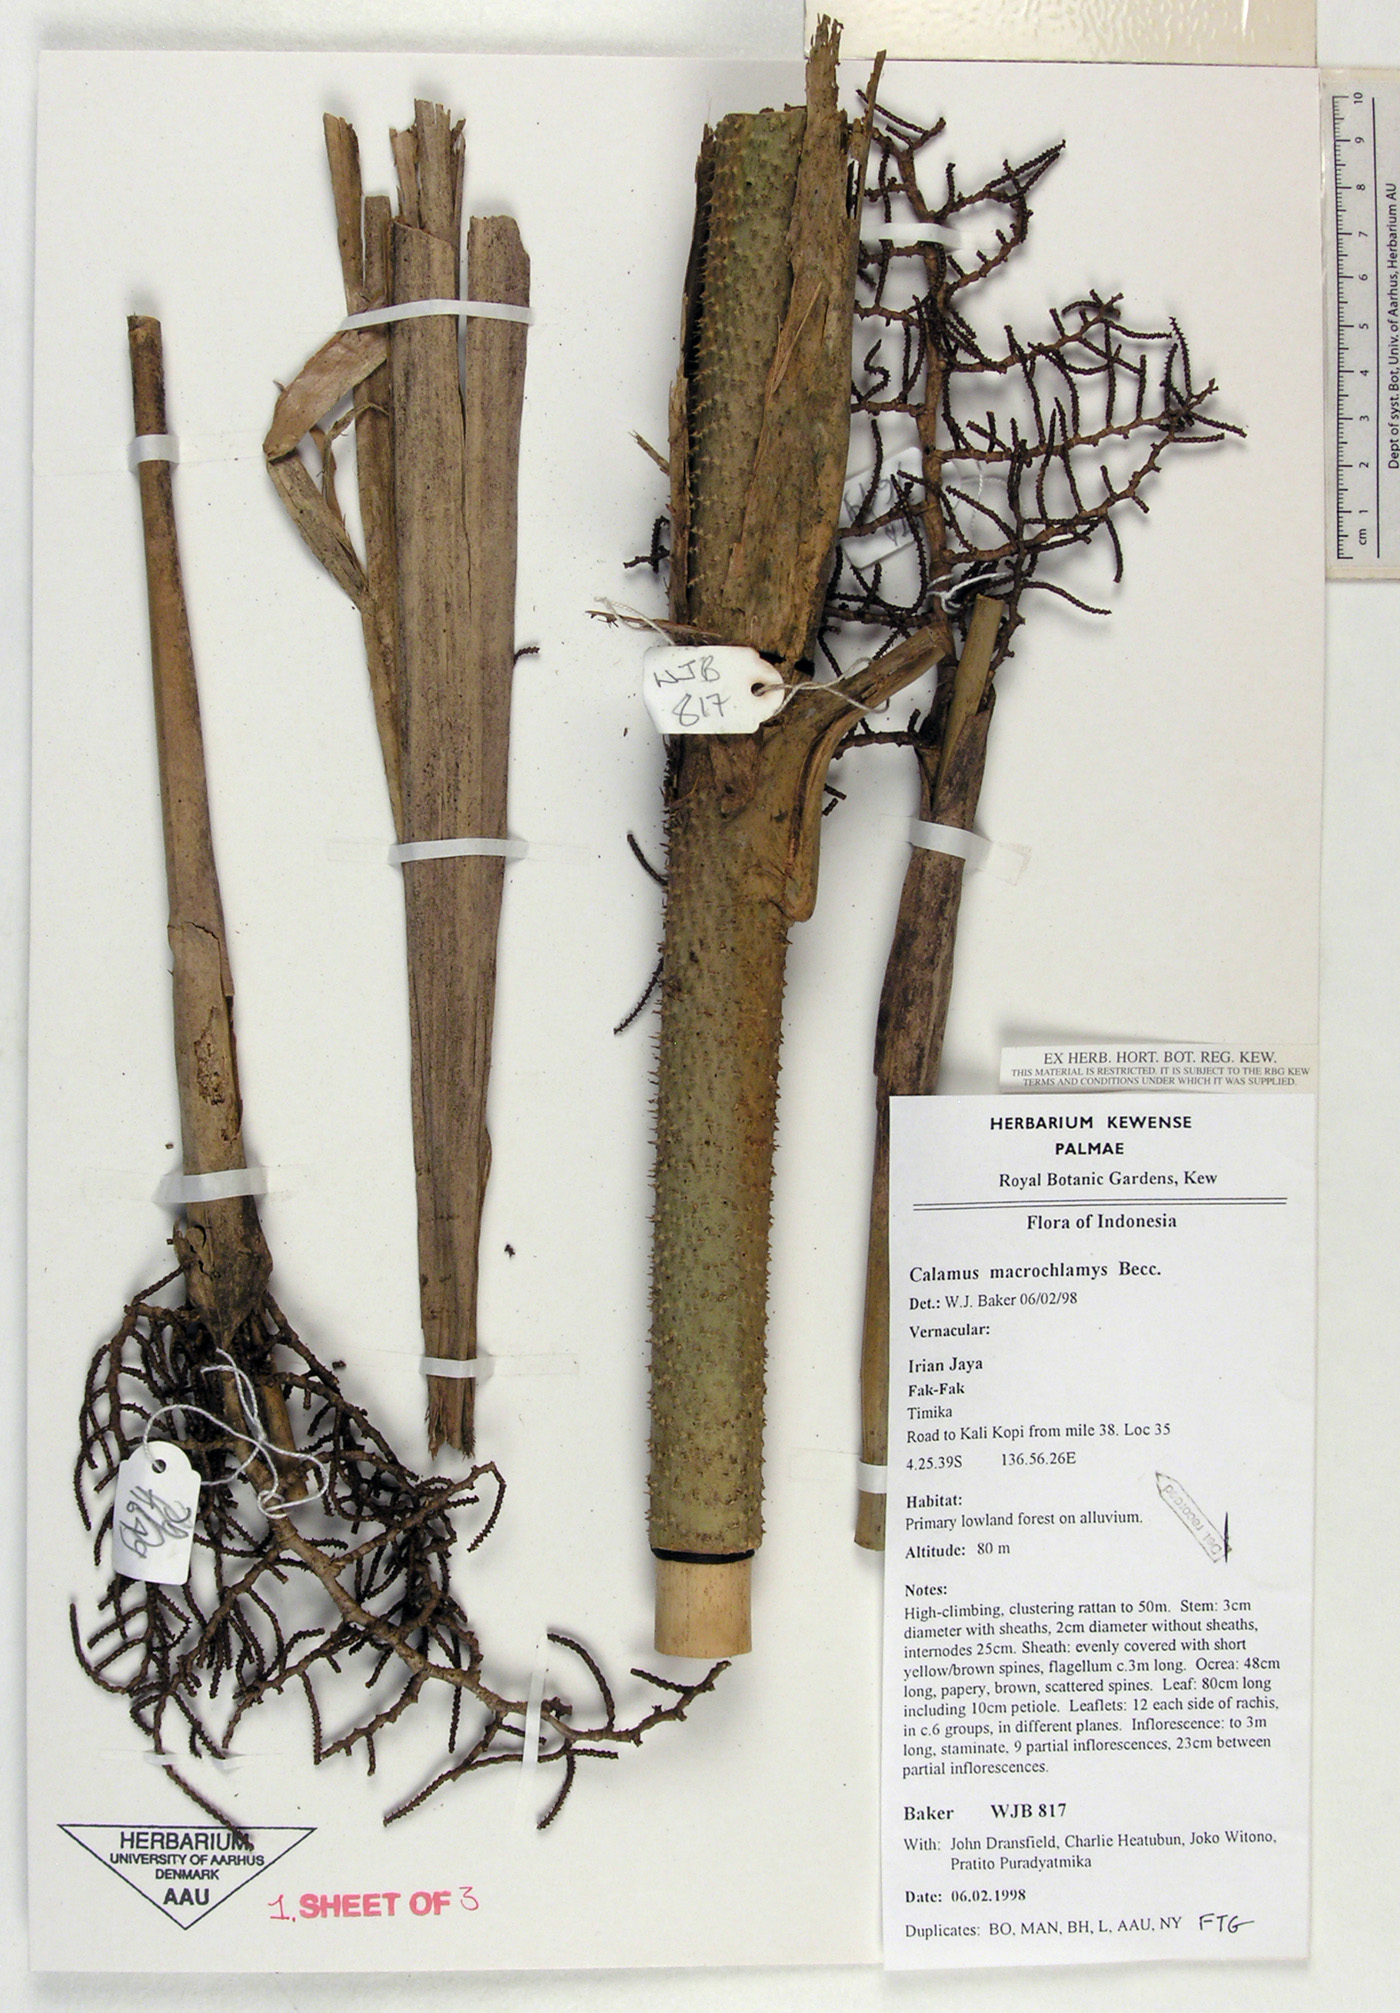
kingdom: Plantae
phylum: Tracheophyta
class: Liliopsida
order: Arecales
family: Arecaceae
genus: Calamus
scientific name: Calamus macrochlamys
